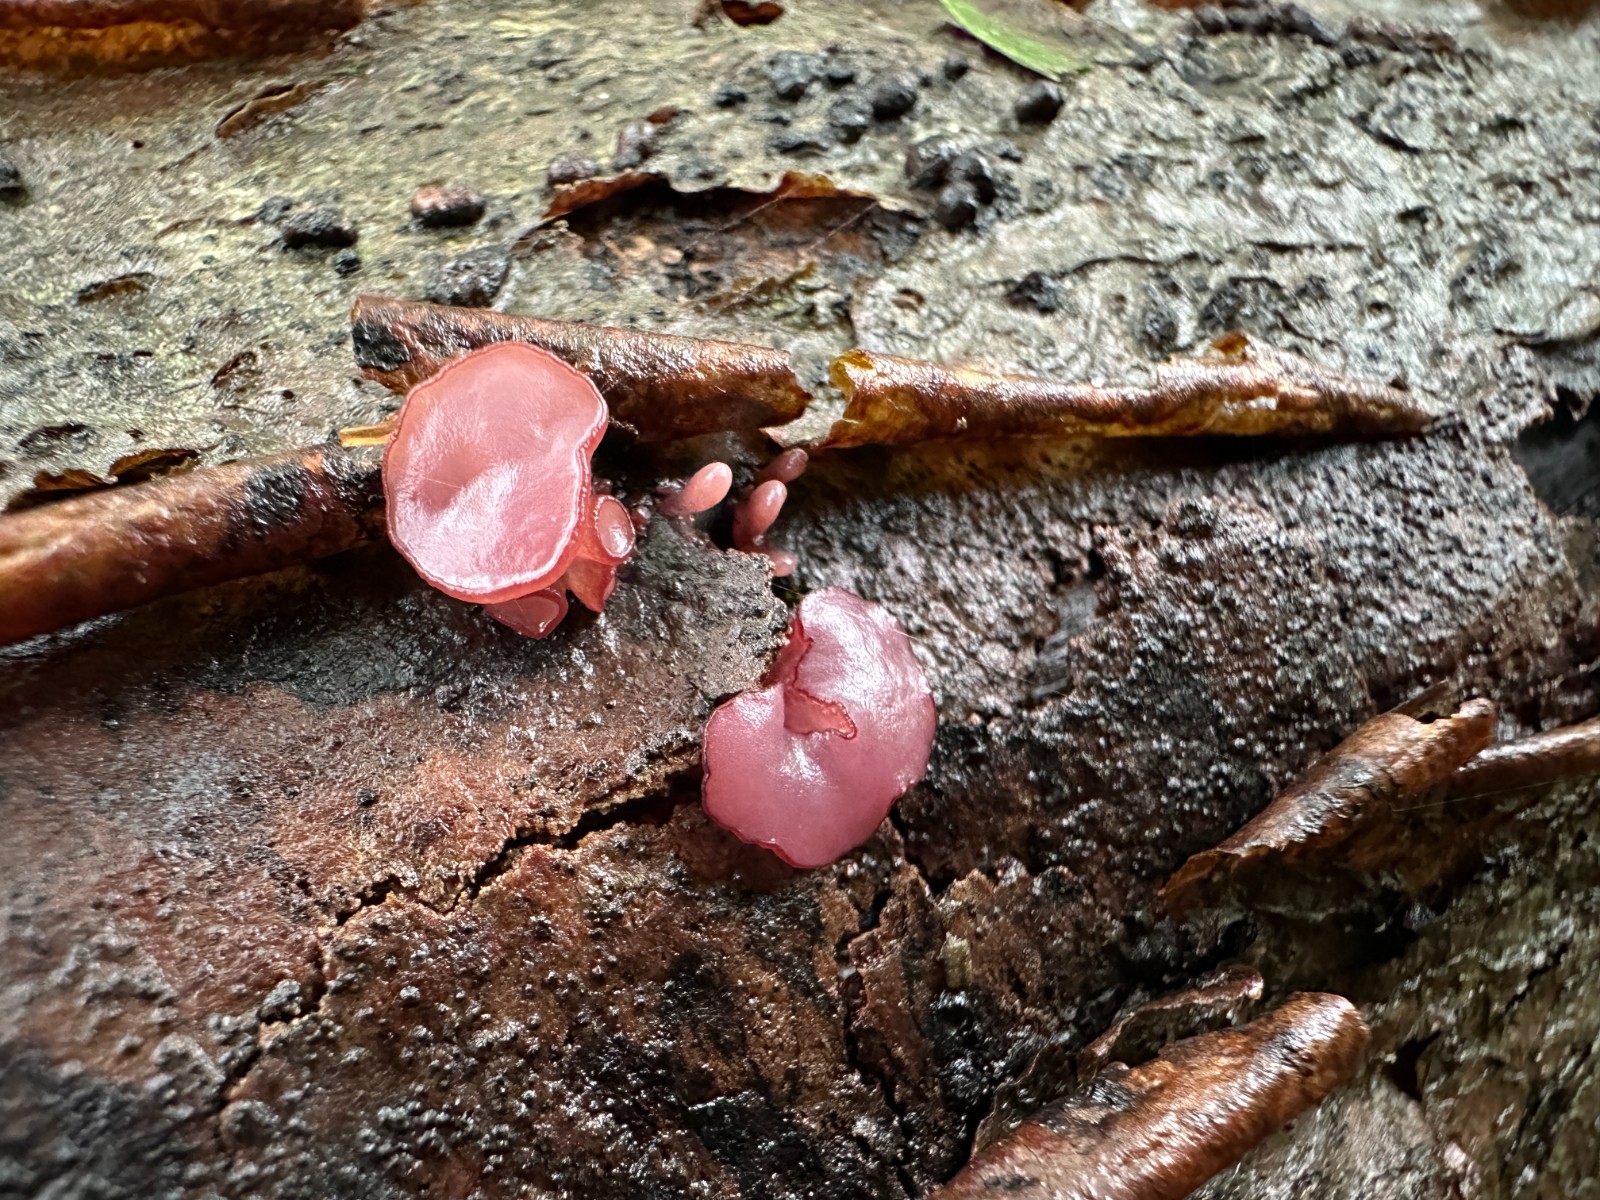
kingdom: Fungi
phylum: Ascomycota
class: Leotiomycetes
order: Helotiales
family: Gelatinodiscaceae
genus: Ascocoryne
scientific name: Ascocoryne sarcoides
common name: rødlilla sejskive
